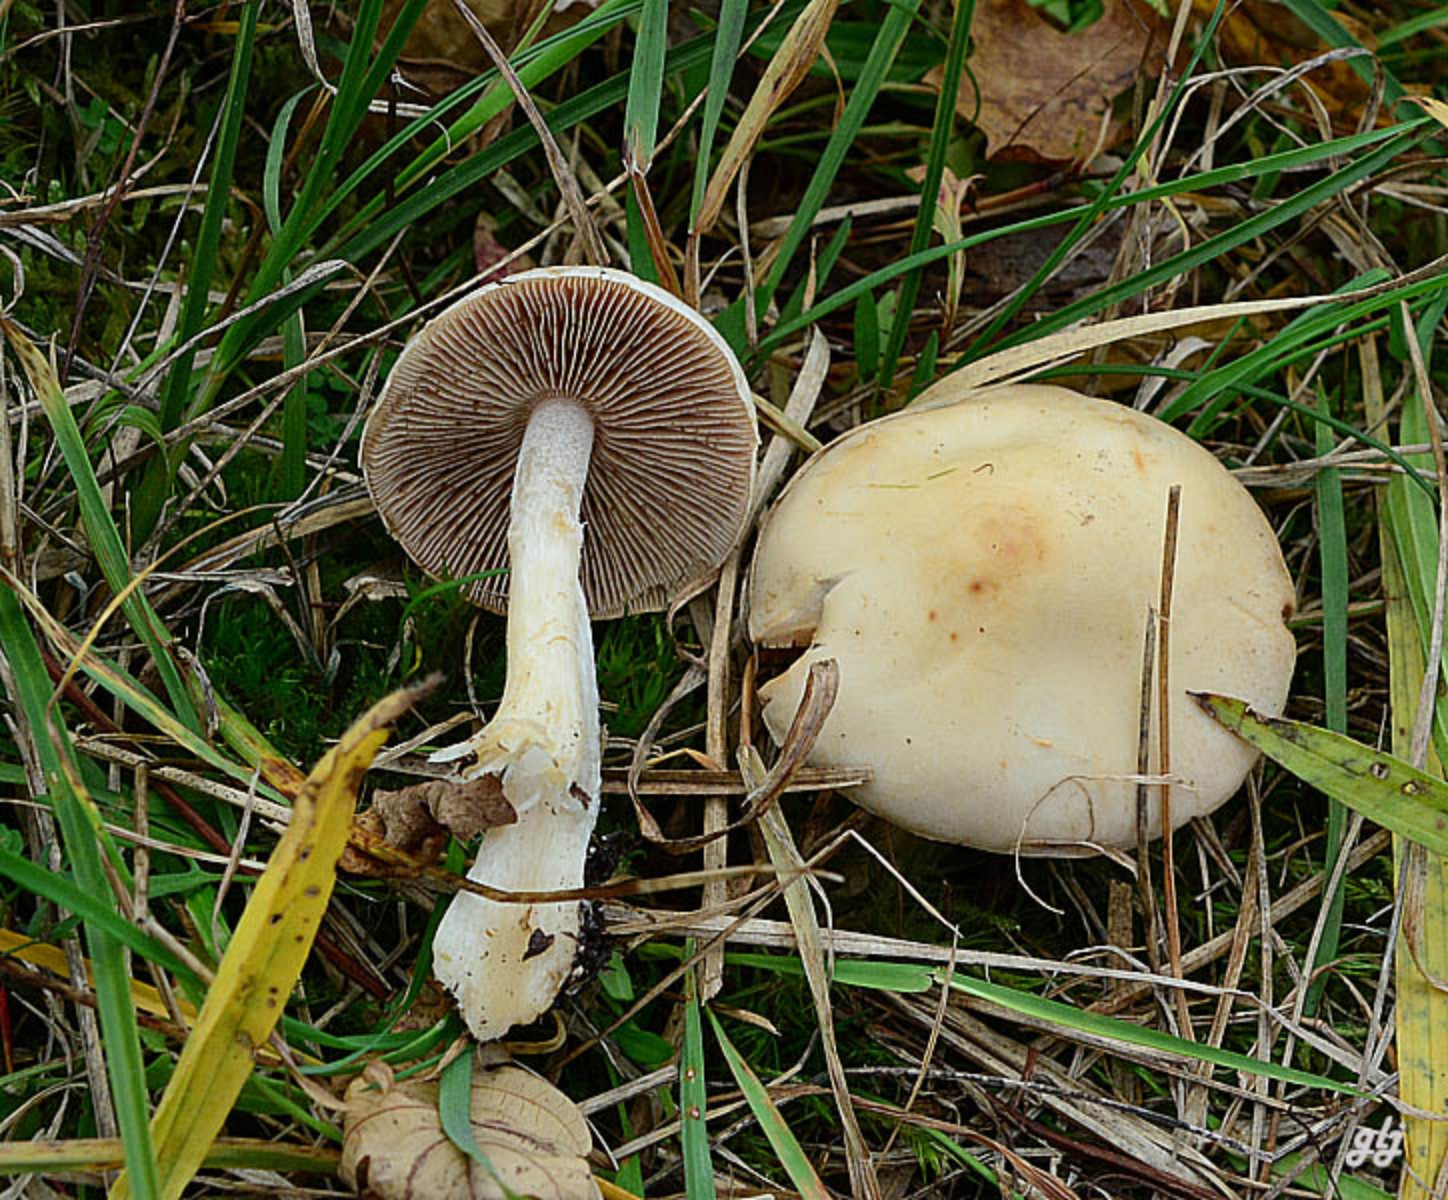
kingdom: Fungi
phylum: Basidiomycota
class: Agaricomycetes
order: Agaricales
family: Hymenogastraceae
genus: Hebeloma
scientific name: Hebeloma
